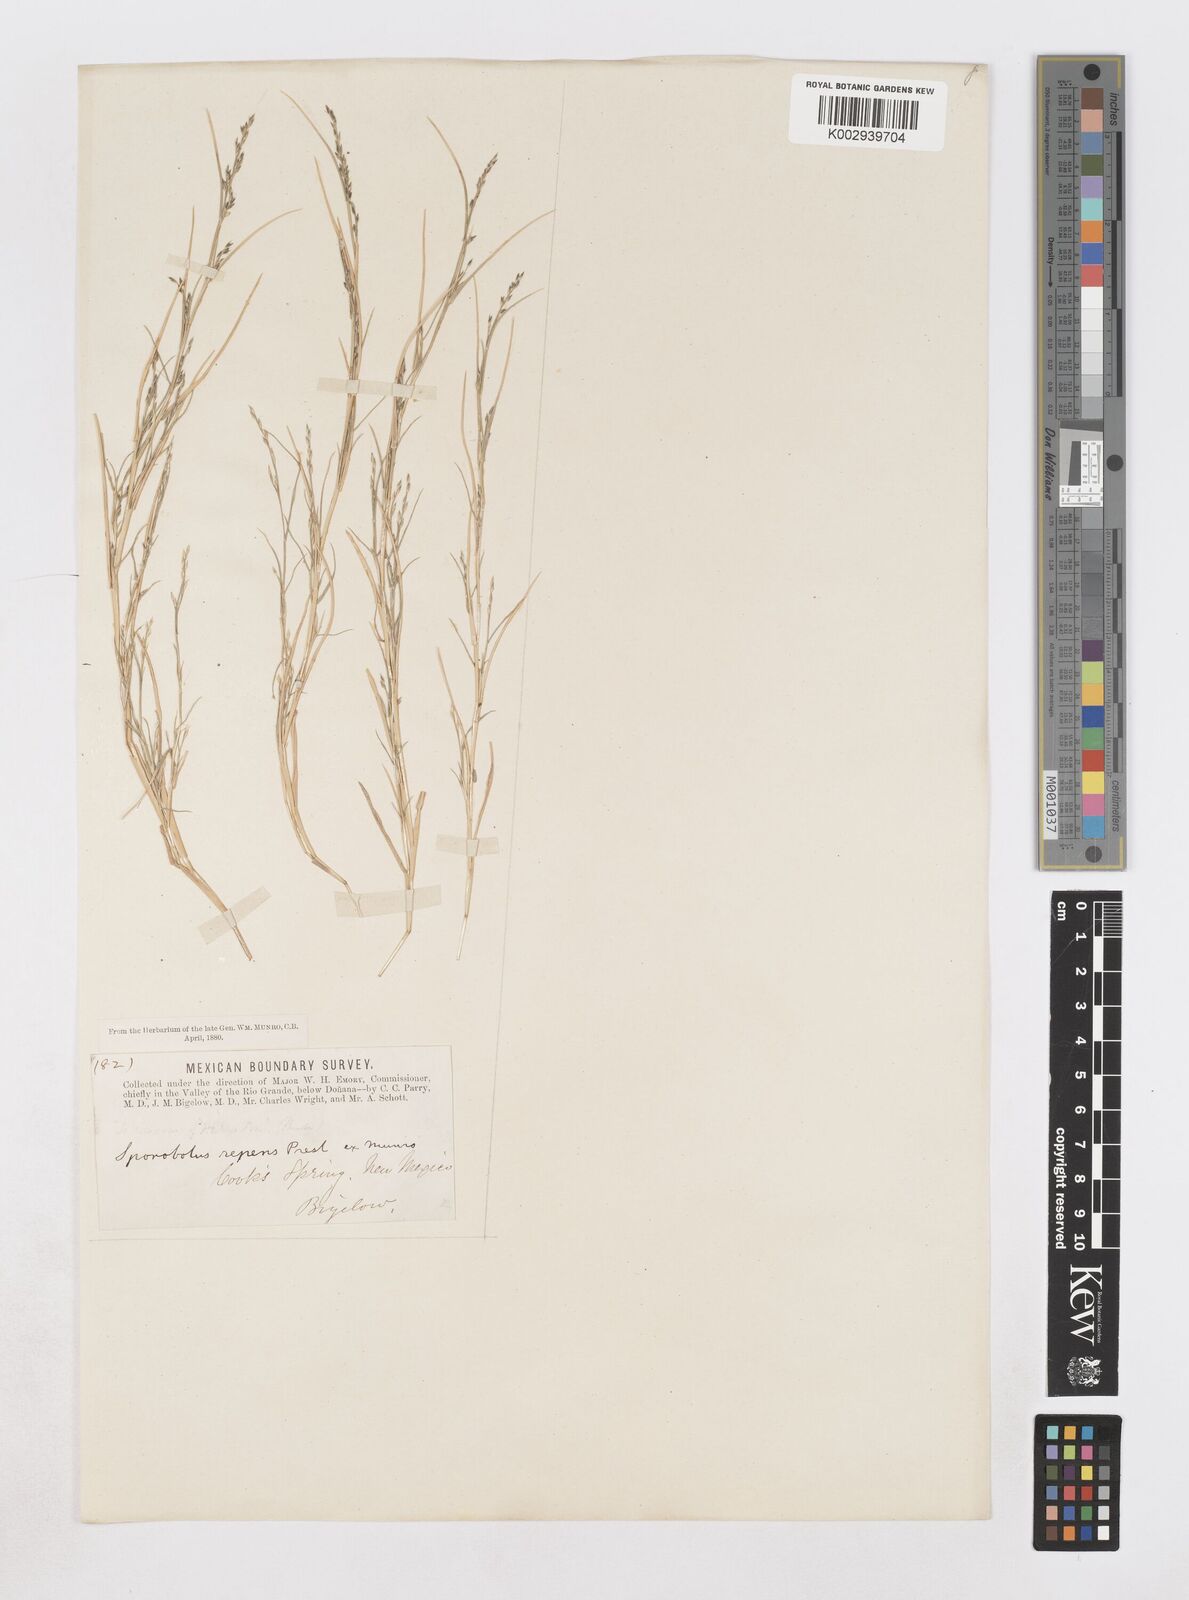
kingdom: Plantae
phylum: Tracheophyta
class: Liliopsida
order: Poales
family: Poaceae
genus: Muhlenbergia
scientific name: Muhlenbergia repens
